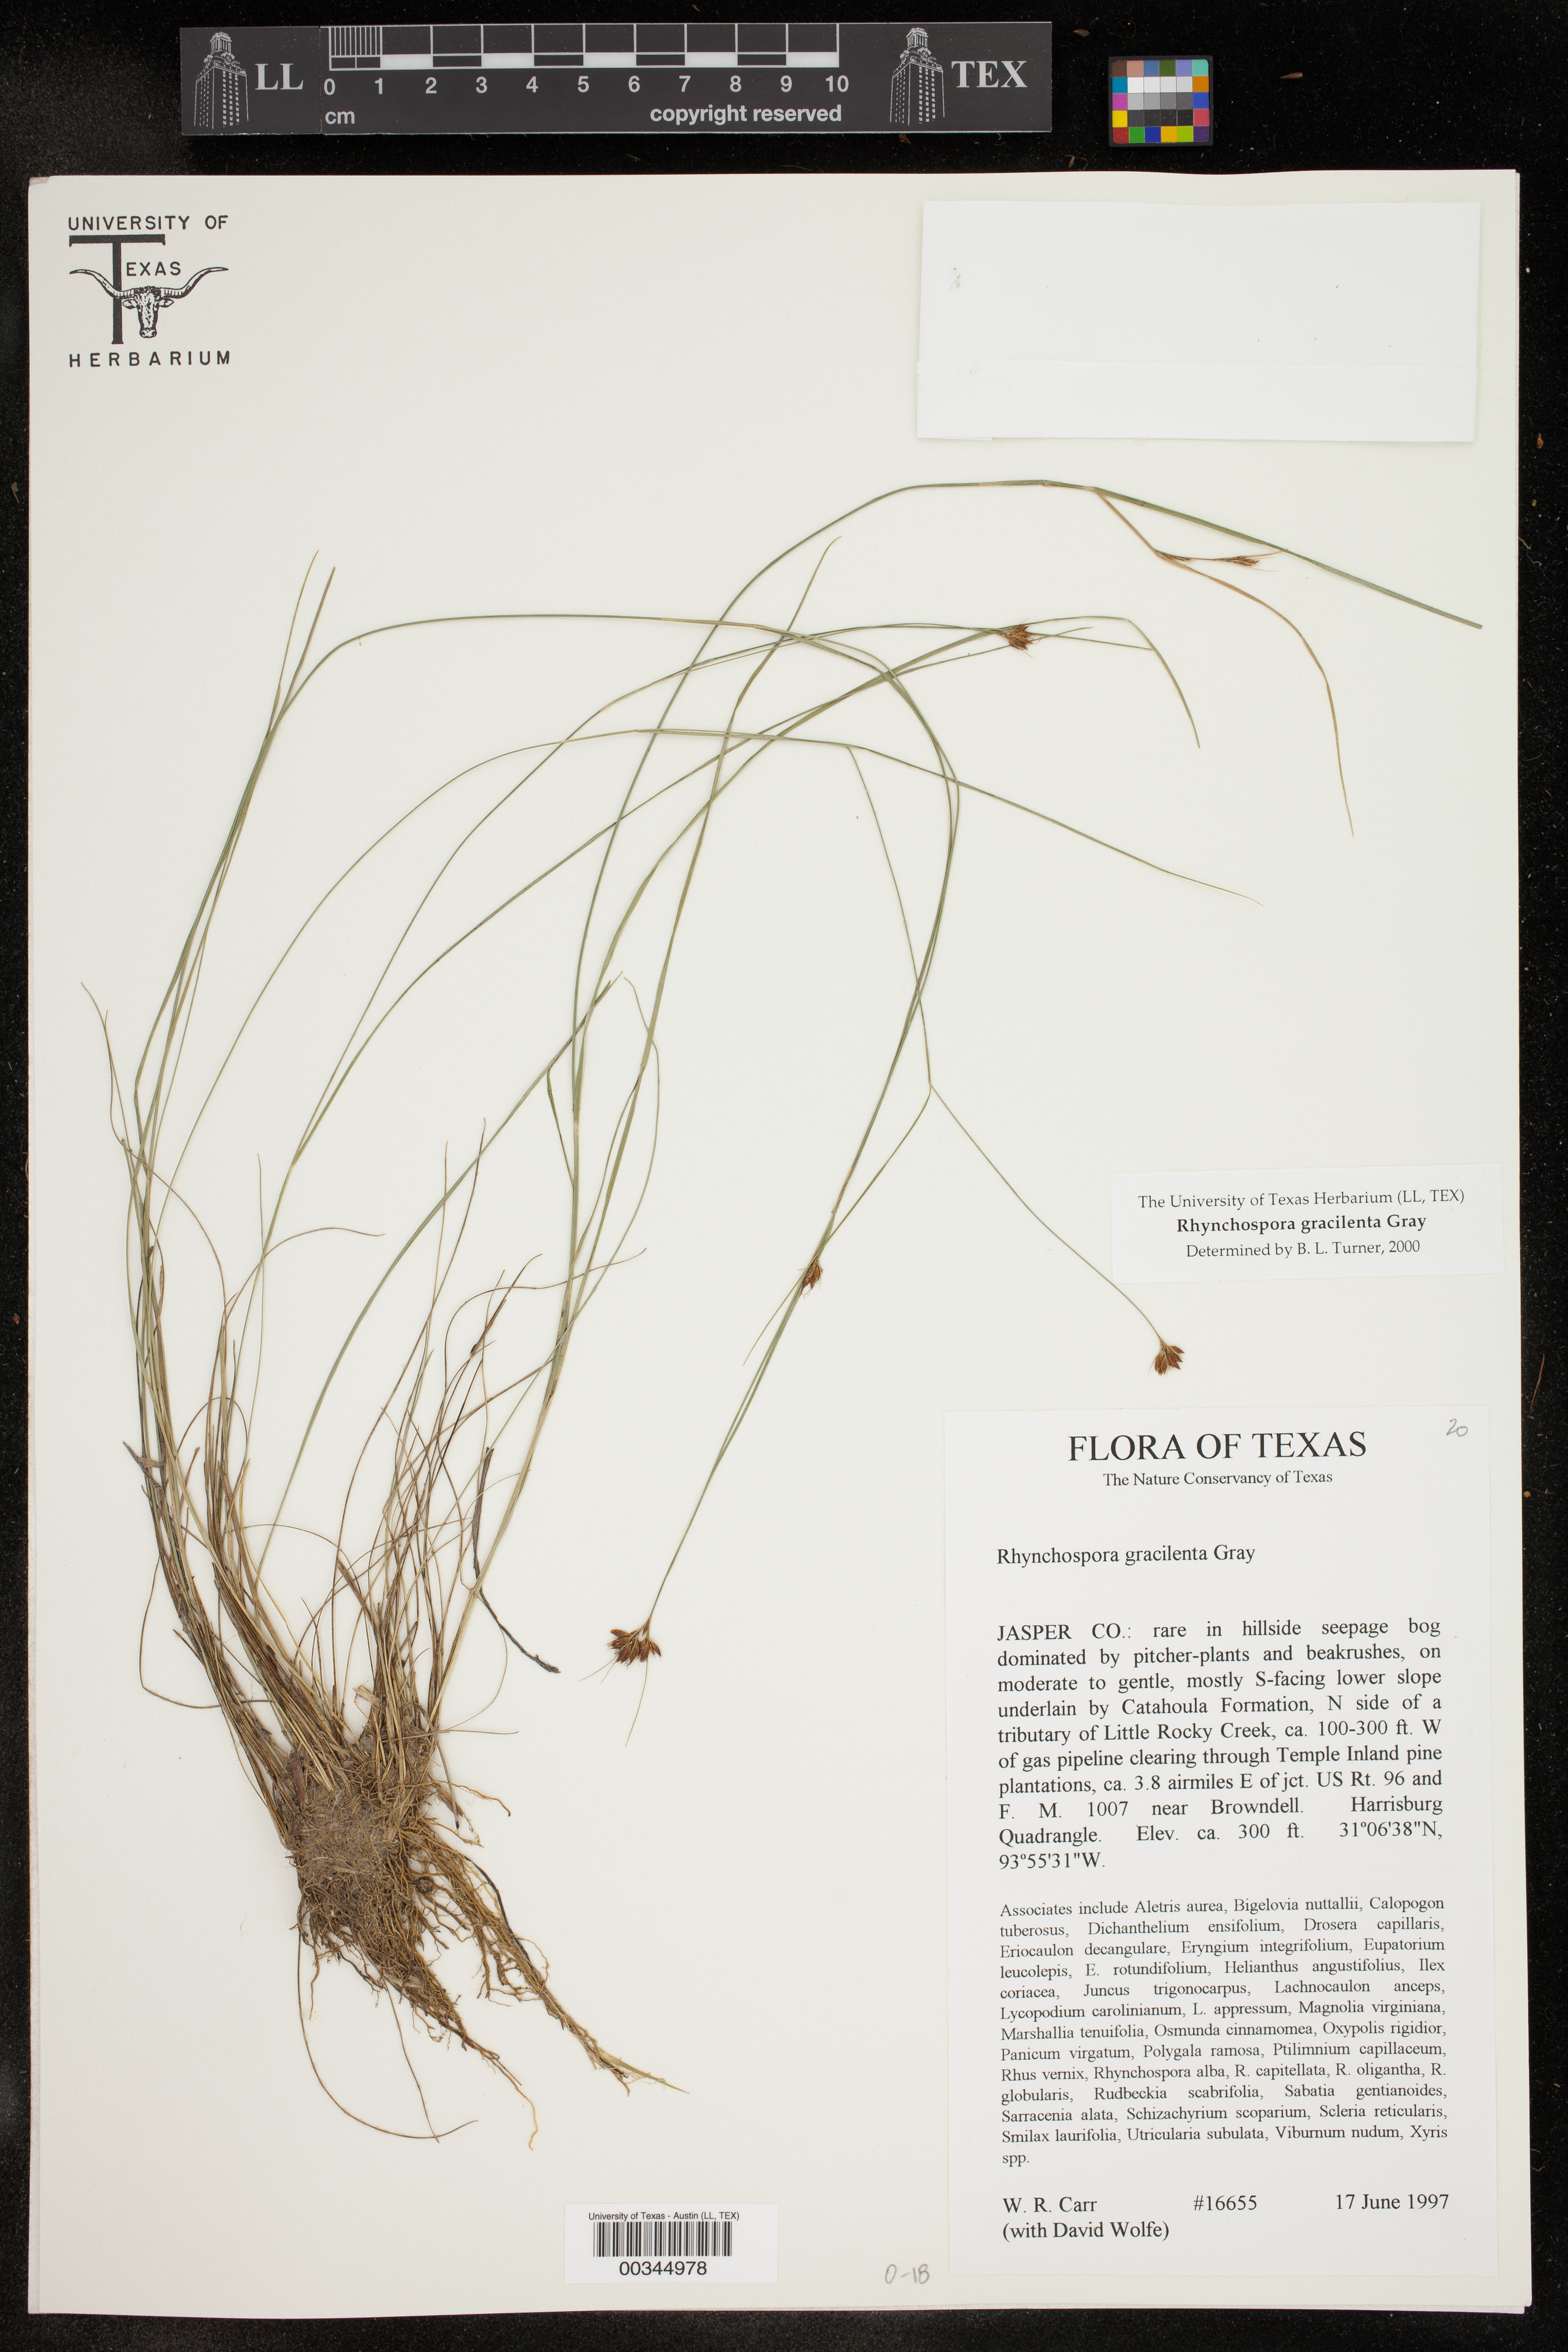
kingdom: Plantae
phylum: Tracheophyta
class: Liliopsida
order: Poales
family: Cyperaceae
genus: Rhynchospora
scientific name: Rhynchospora gracilenta
